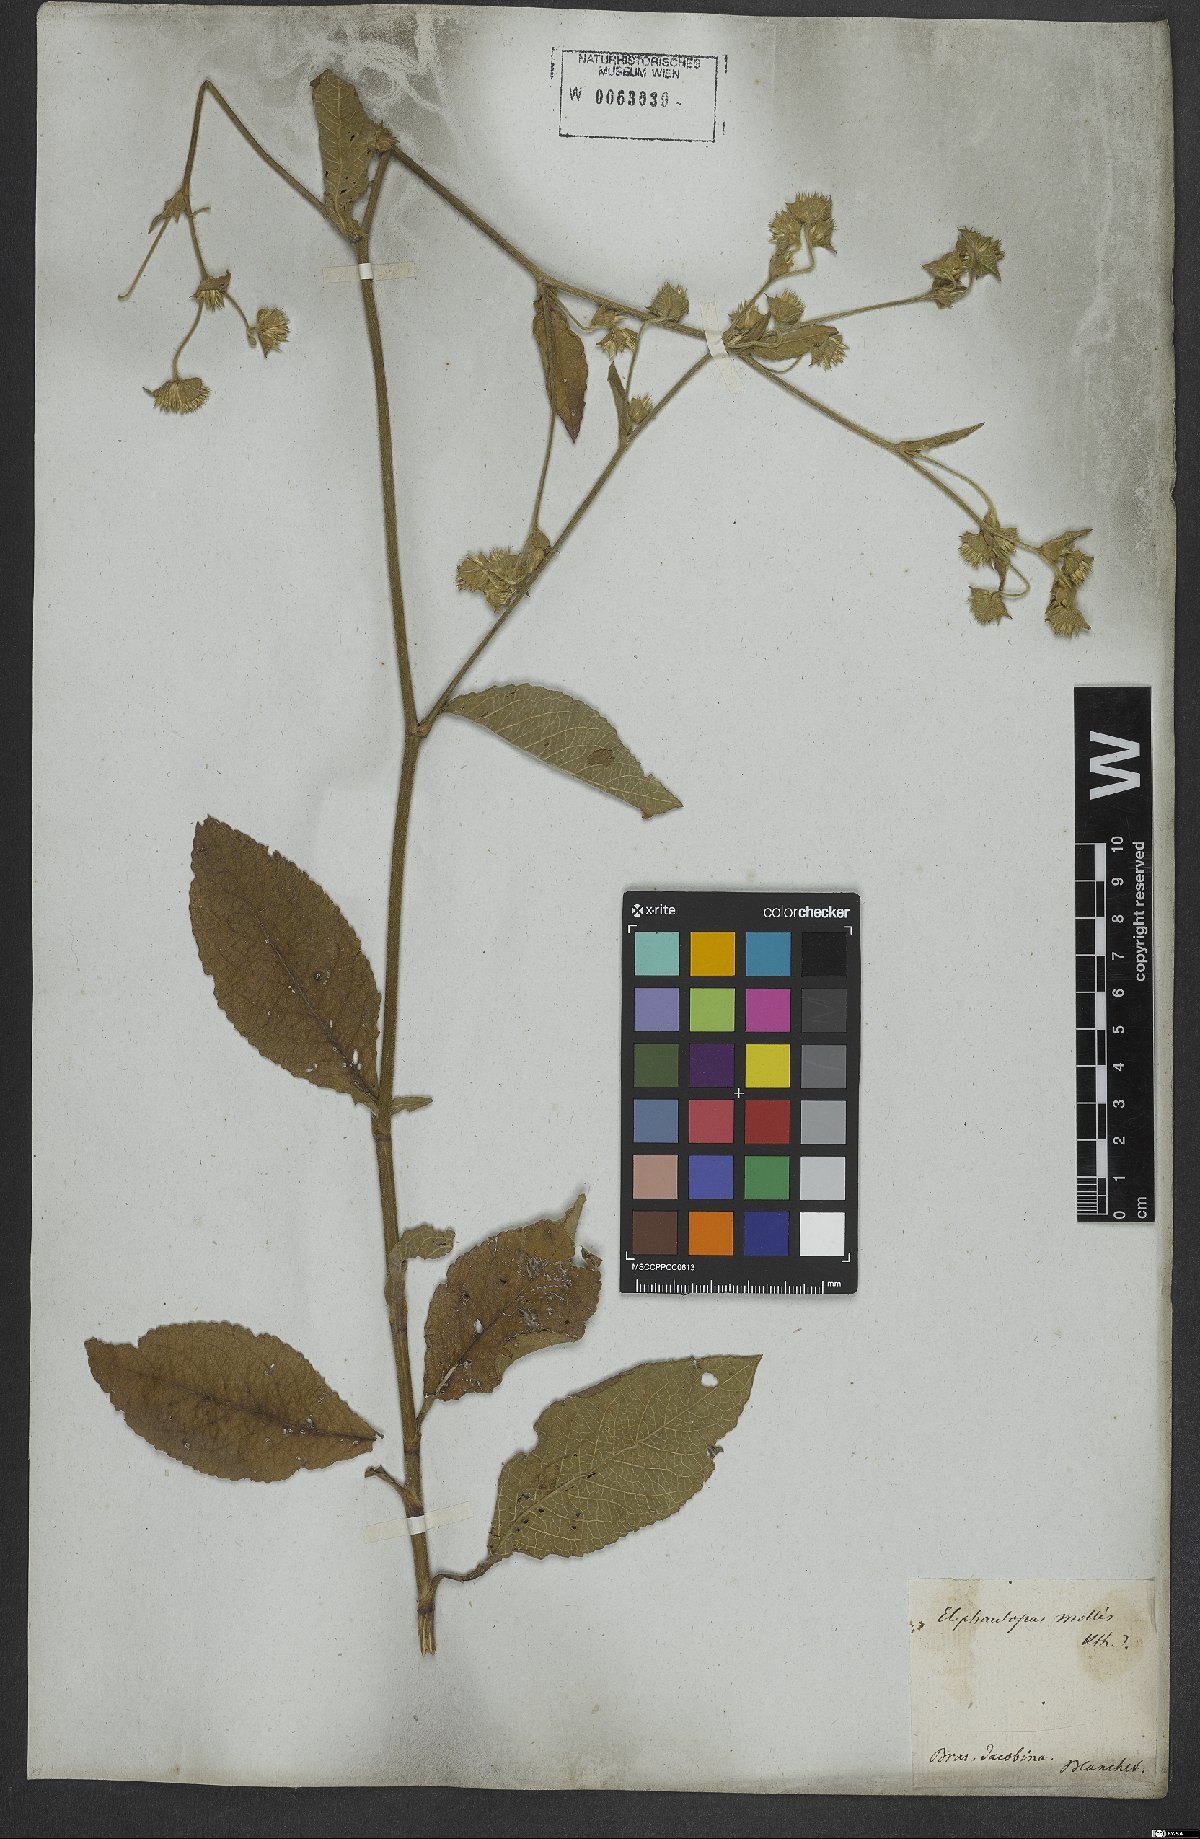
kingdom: Plantae
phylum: Tracheophyta
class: Magnoliopsida
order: Asterales
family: Asteraceae
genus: Elephantopus
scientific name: Elephantopus mollis
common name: Soft elephantsfoot
